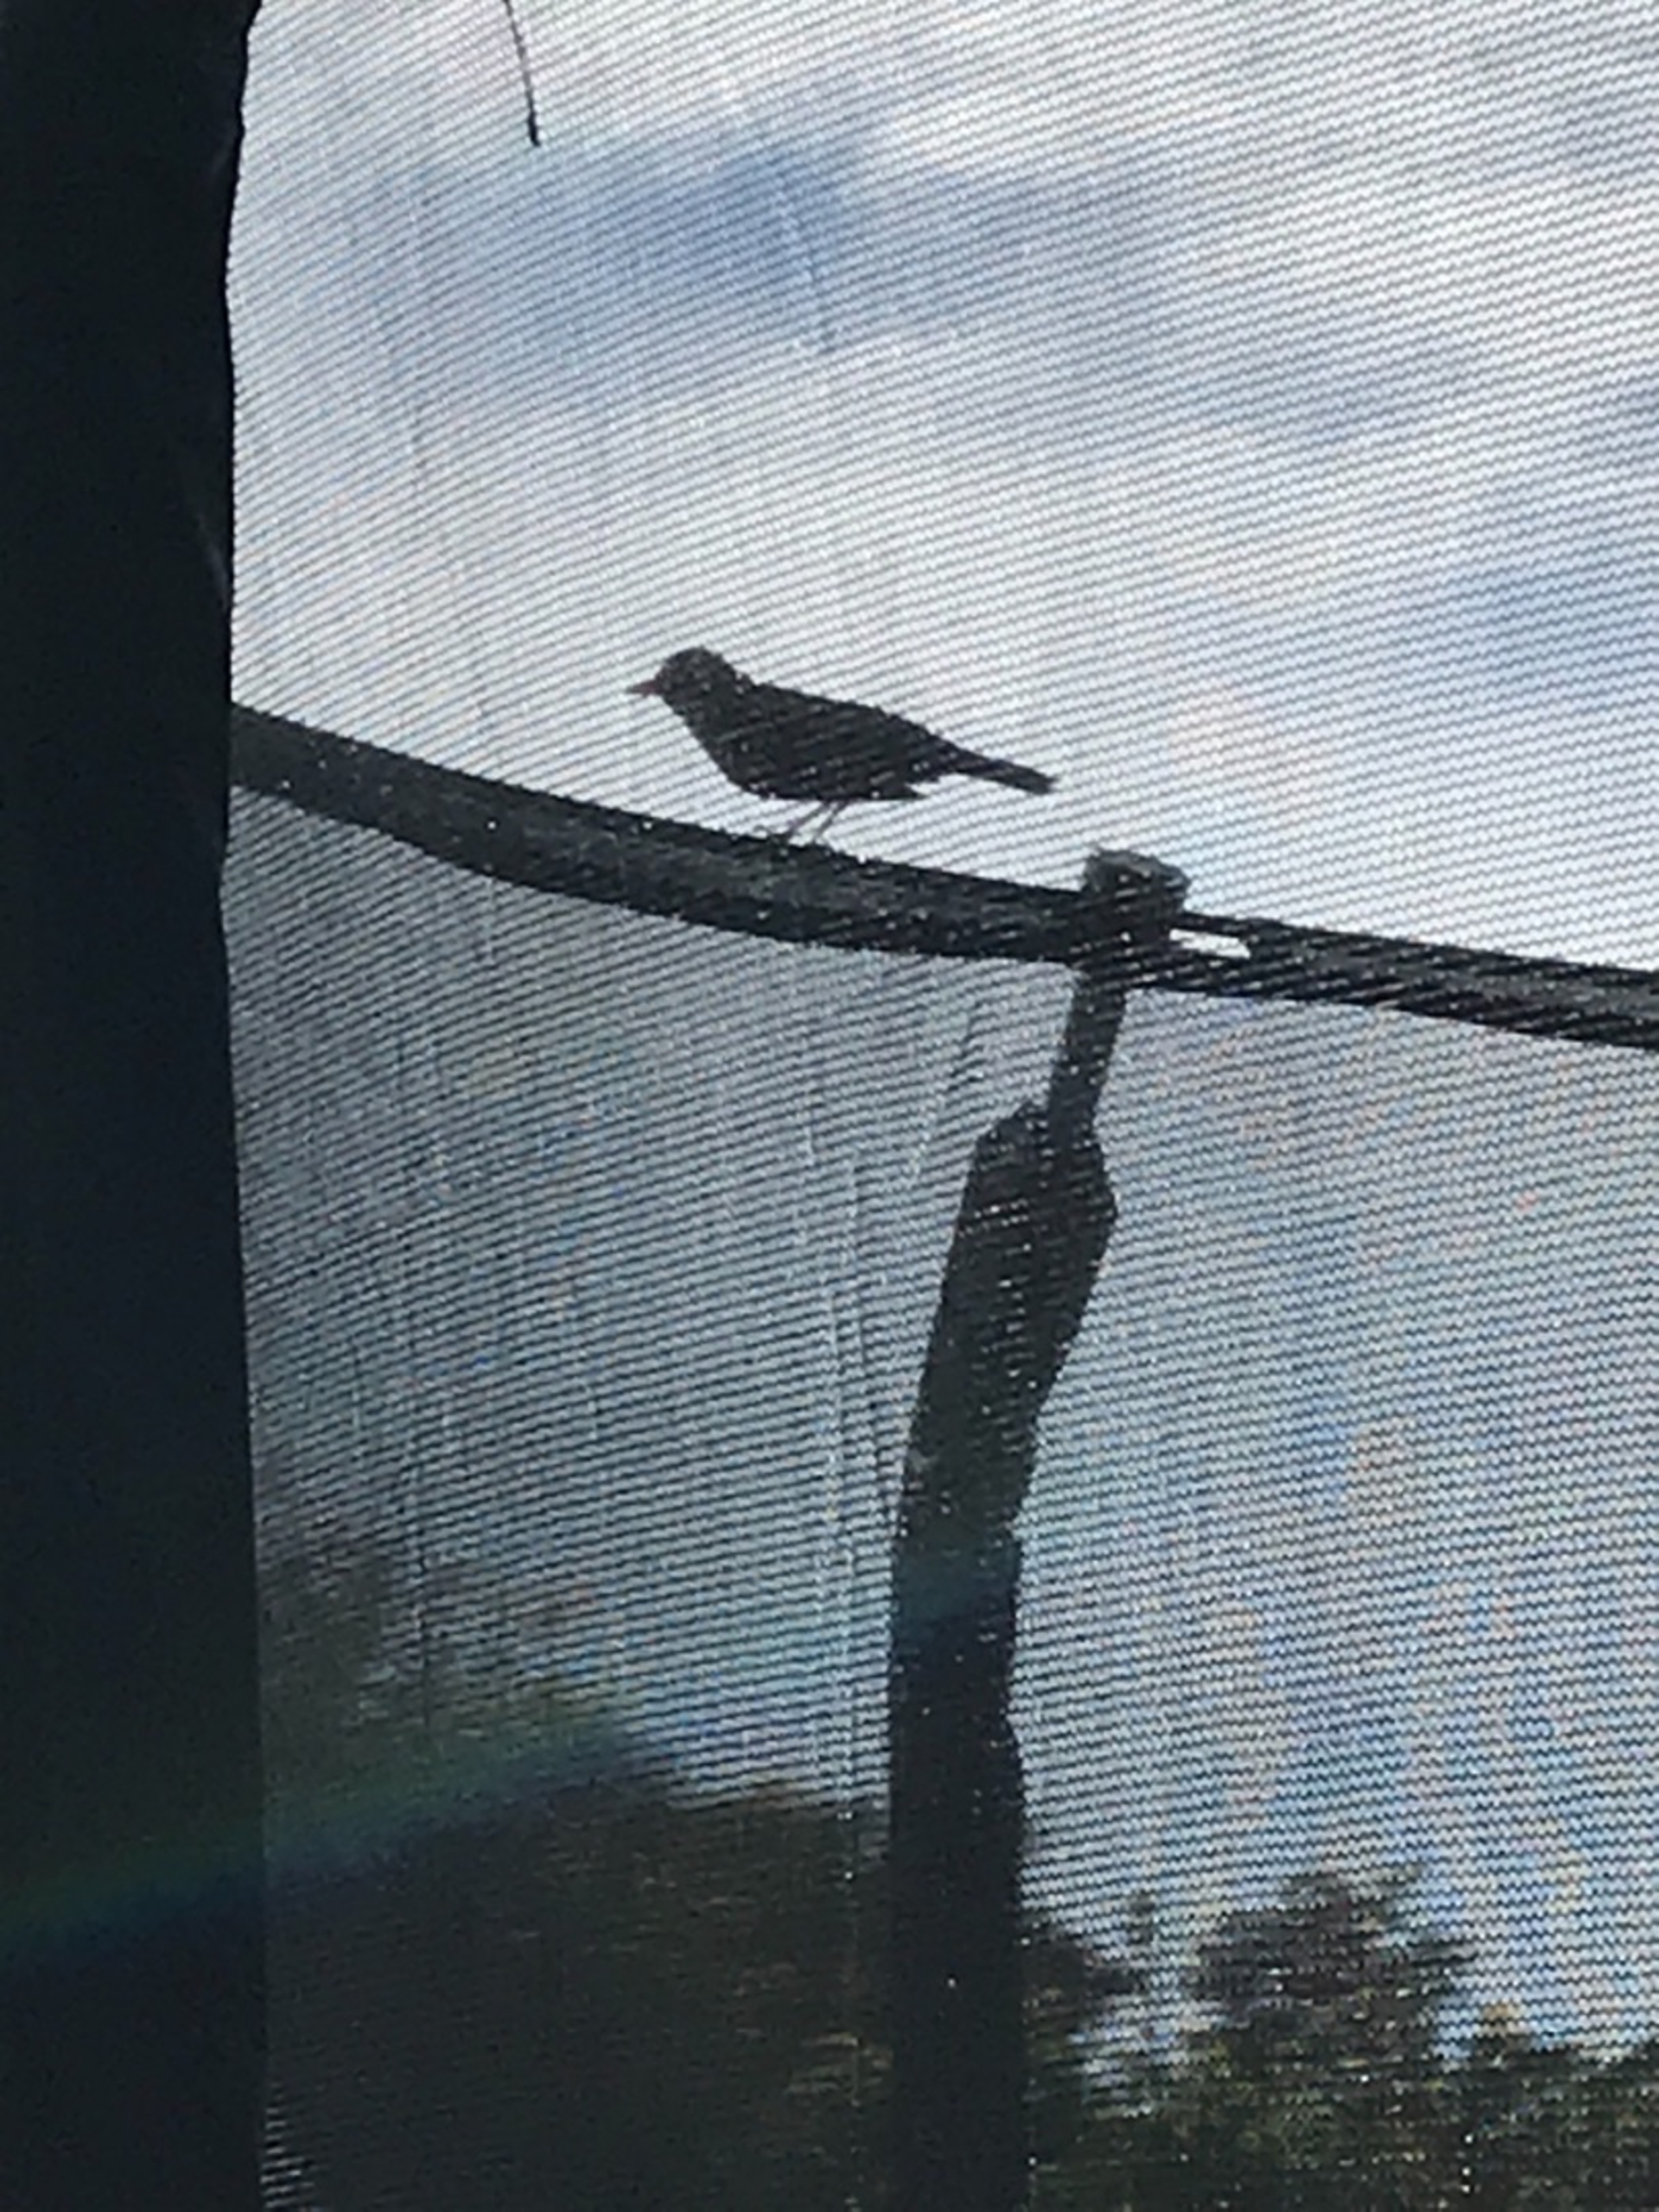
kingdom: Animalia
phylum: Chordata
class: Aves
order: Passeriformes
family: Turdidae
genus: Turdus
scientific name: Turdus merula
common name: Solsort
